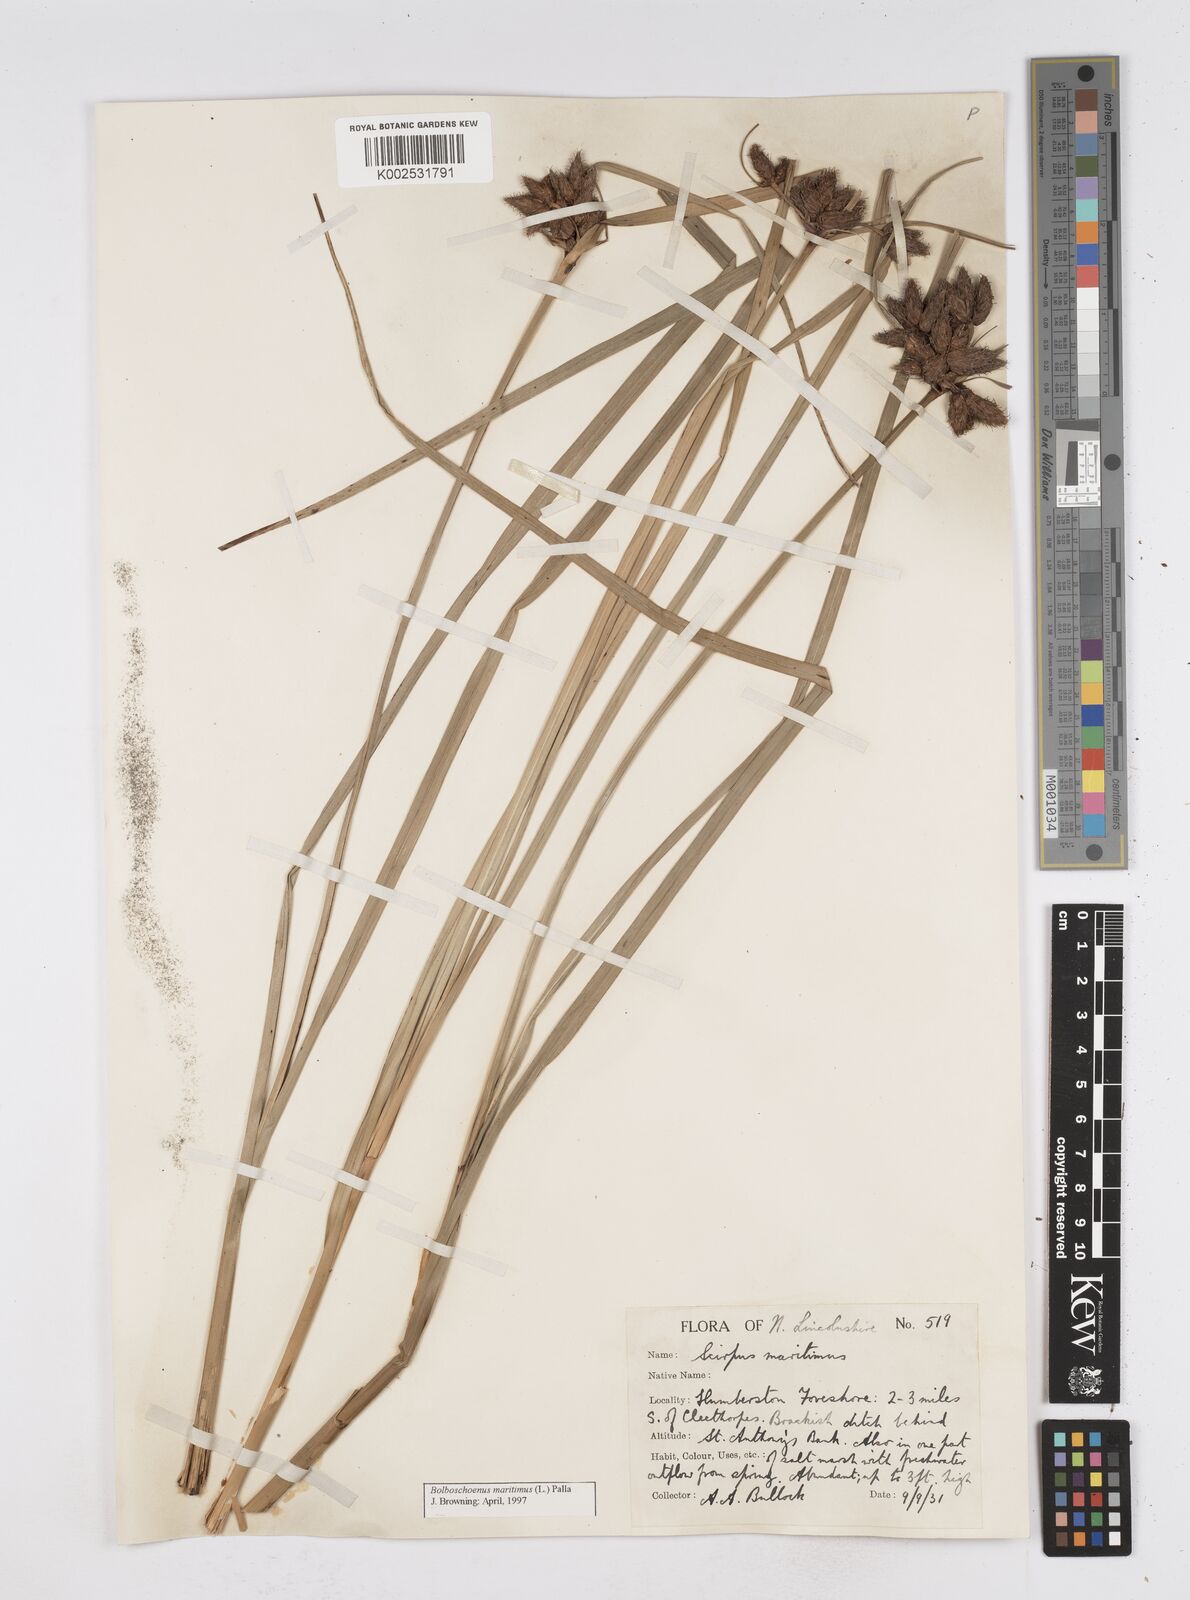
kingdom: Plantae
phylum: Tracheophyta
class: Liliopsida
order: Poales
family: Cyperaceae
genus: Bolboschoenus
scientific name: Bolboschoenus maritimus
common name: Sea club-rush
